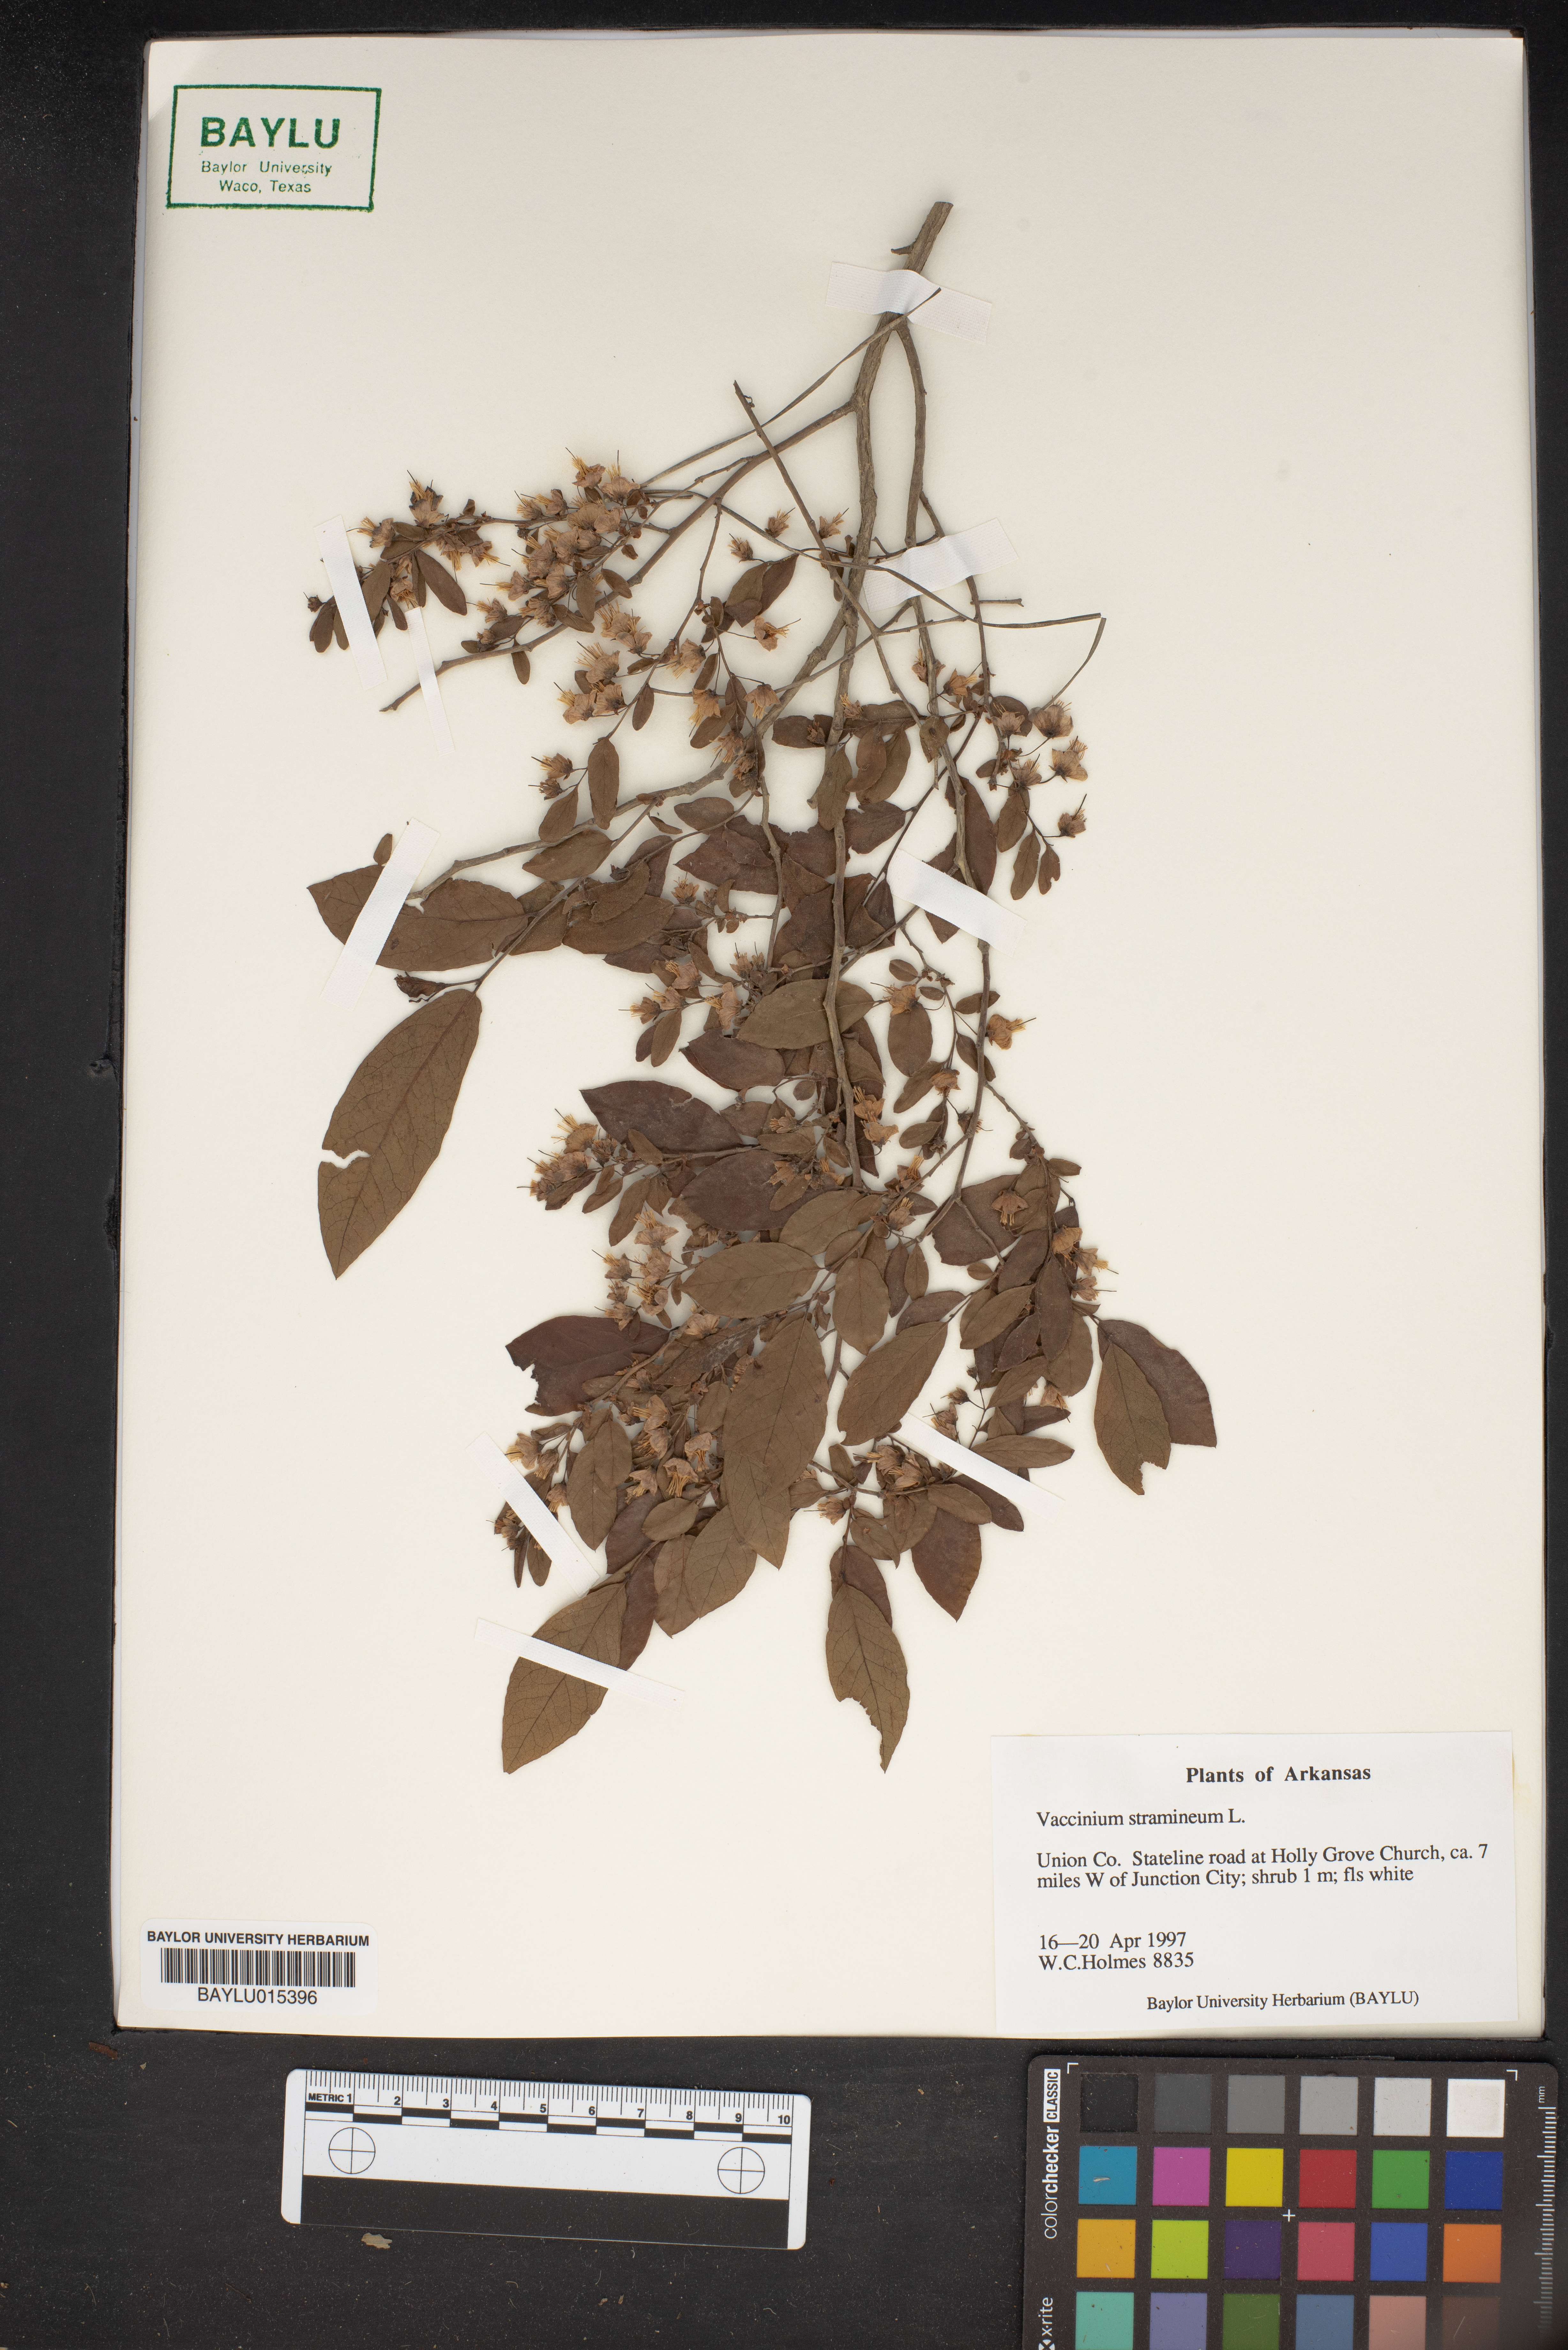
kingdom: Plantae
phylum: Tracheophyta
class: Magnoliopsida
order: Ericales
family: Ericaceae
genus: Vaccinium
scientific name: Vaccinium stramineum
